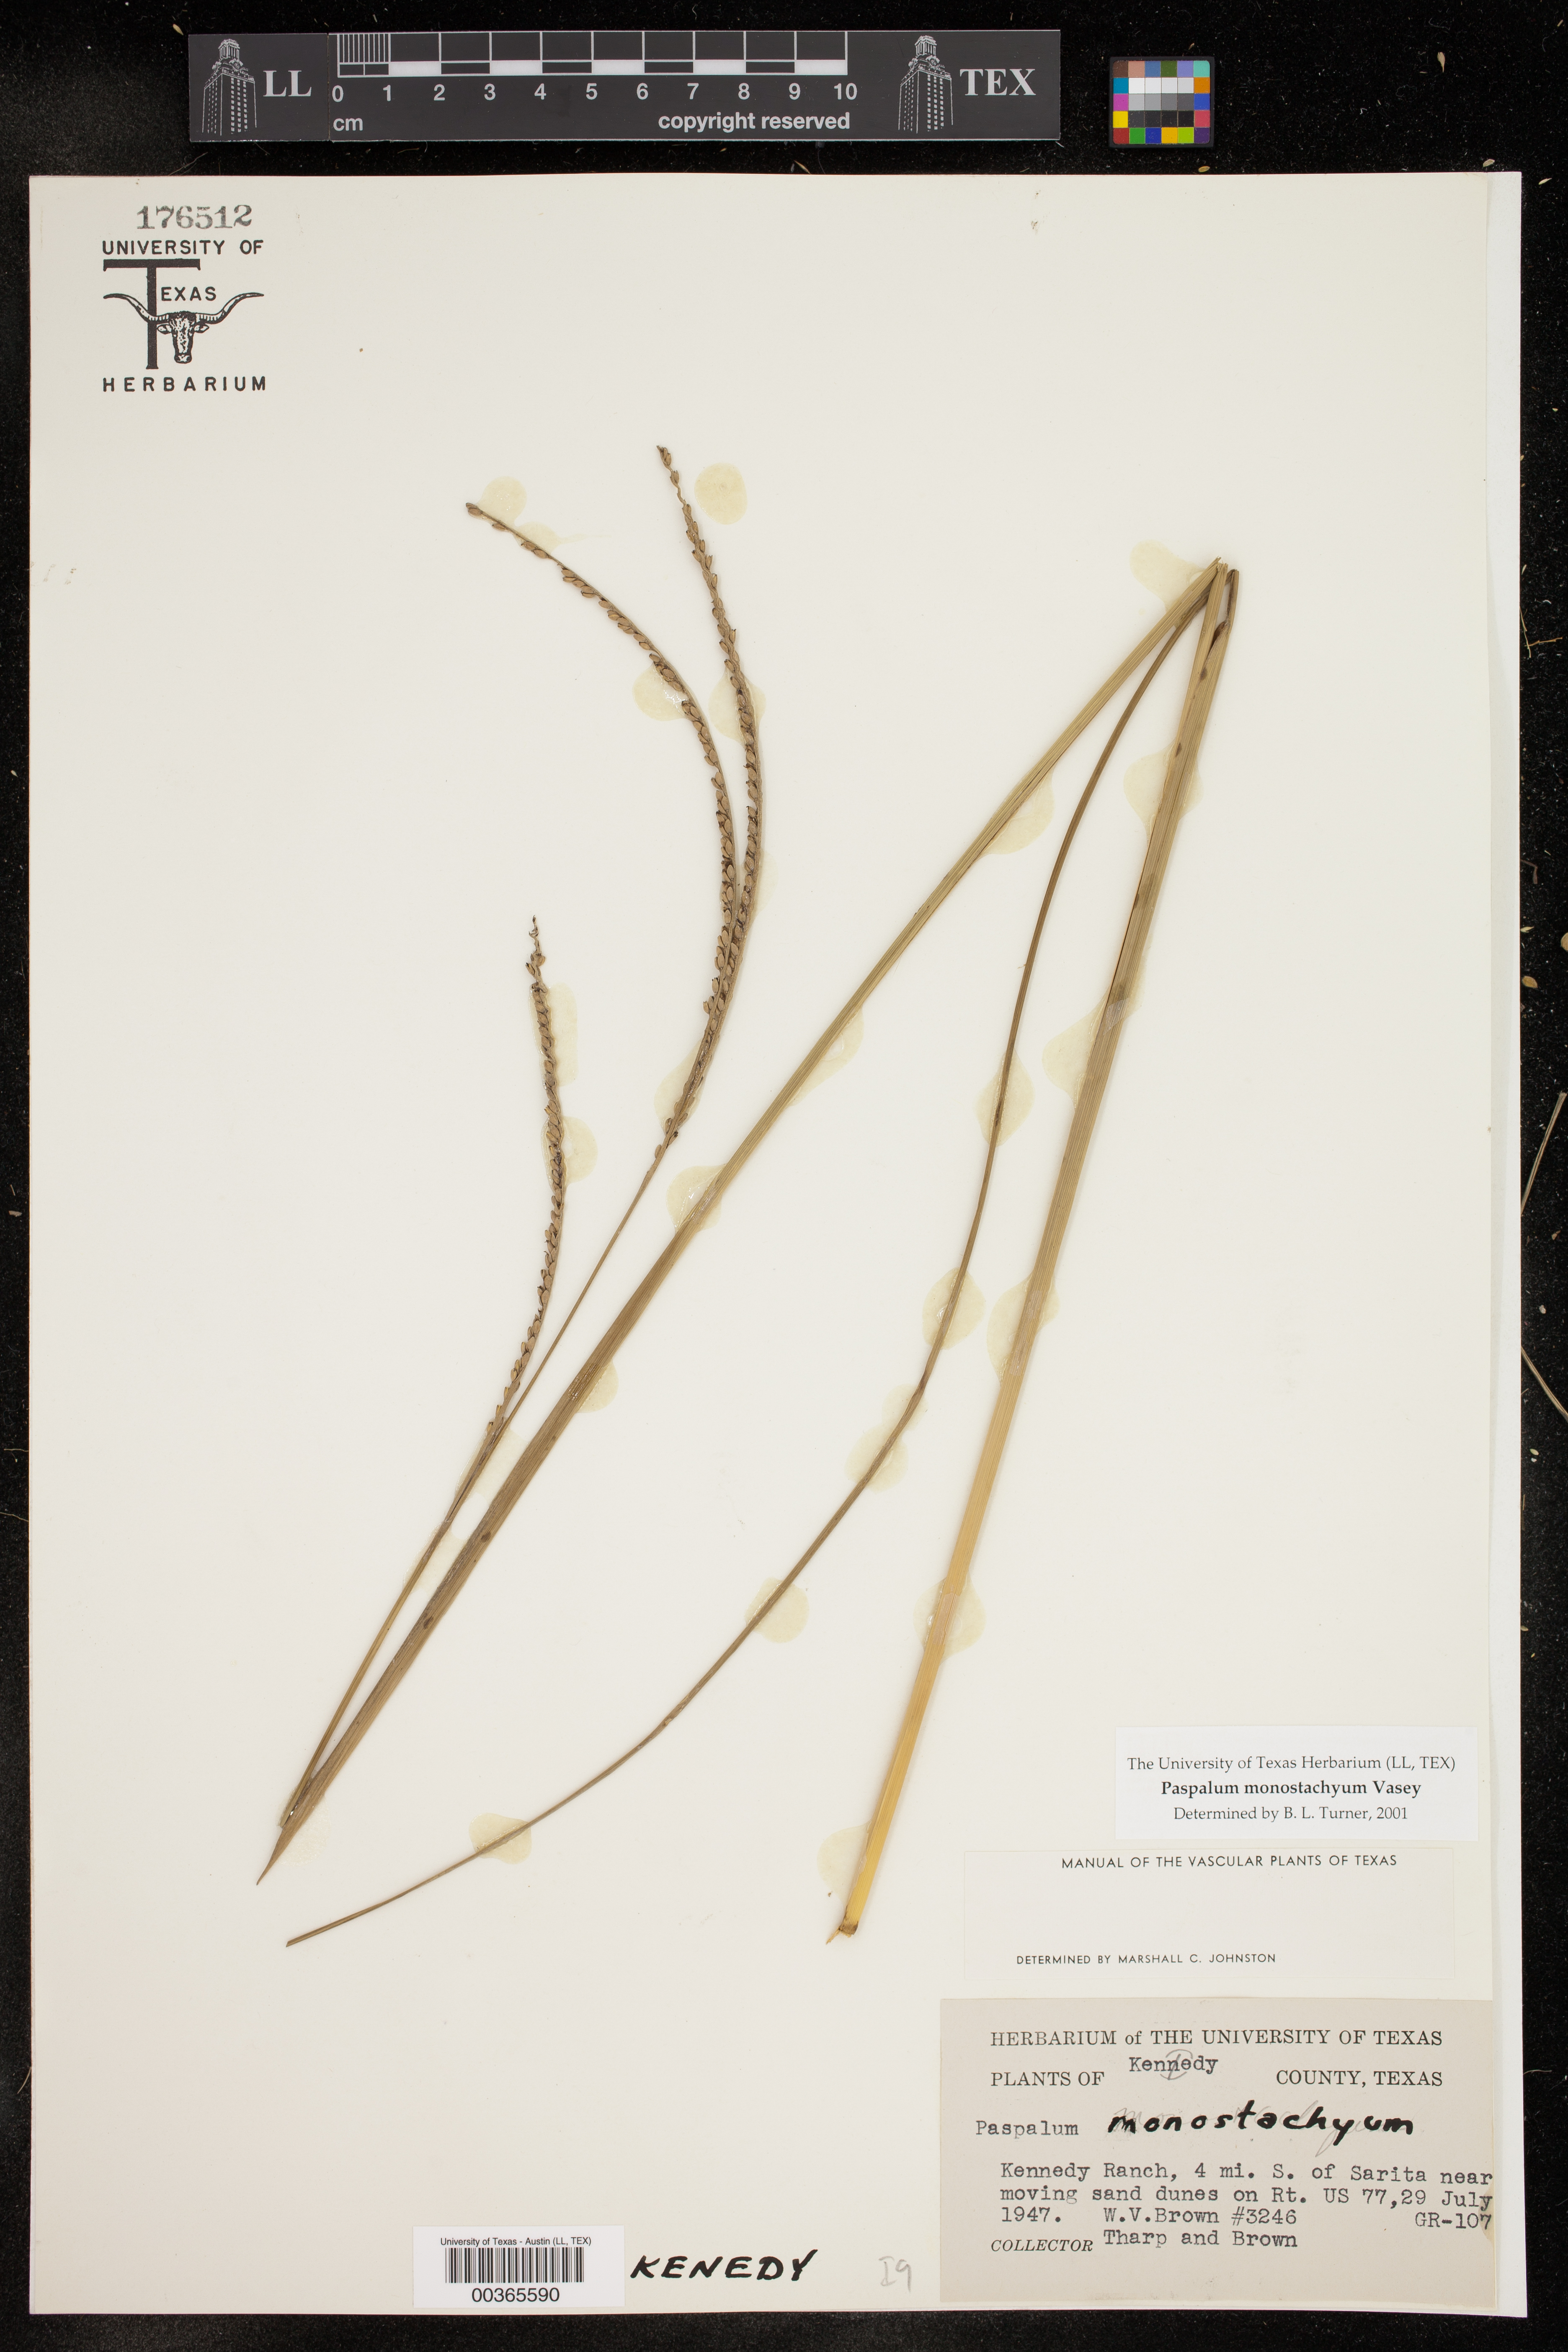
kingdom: Plantae
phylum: Tracheophyta
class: Liliopsida
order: Poales
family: Poaceae
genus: Paspalum
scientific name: Paspalum monostachyum
